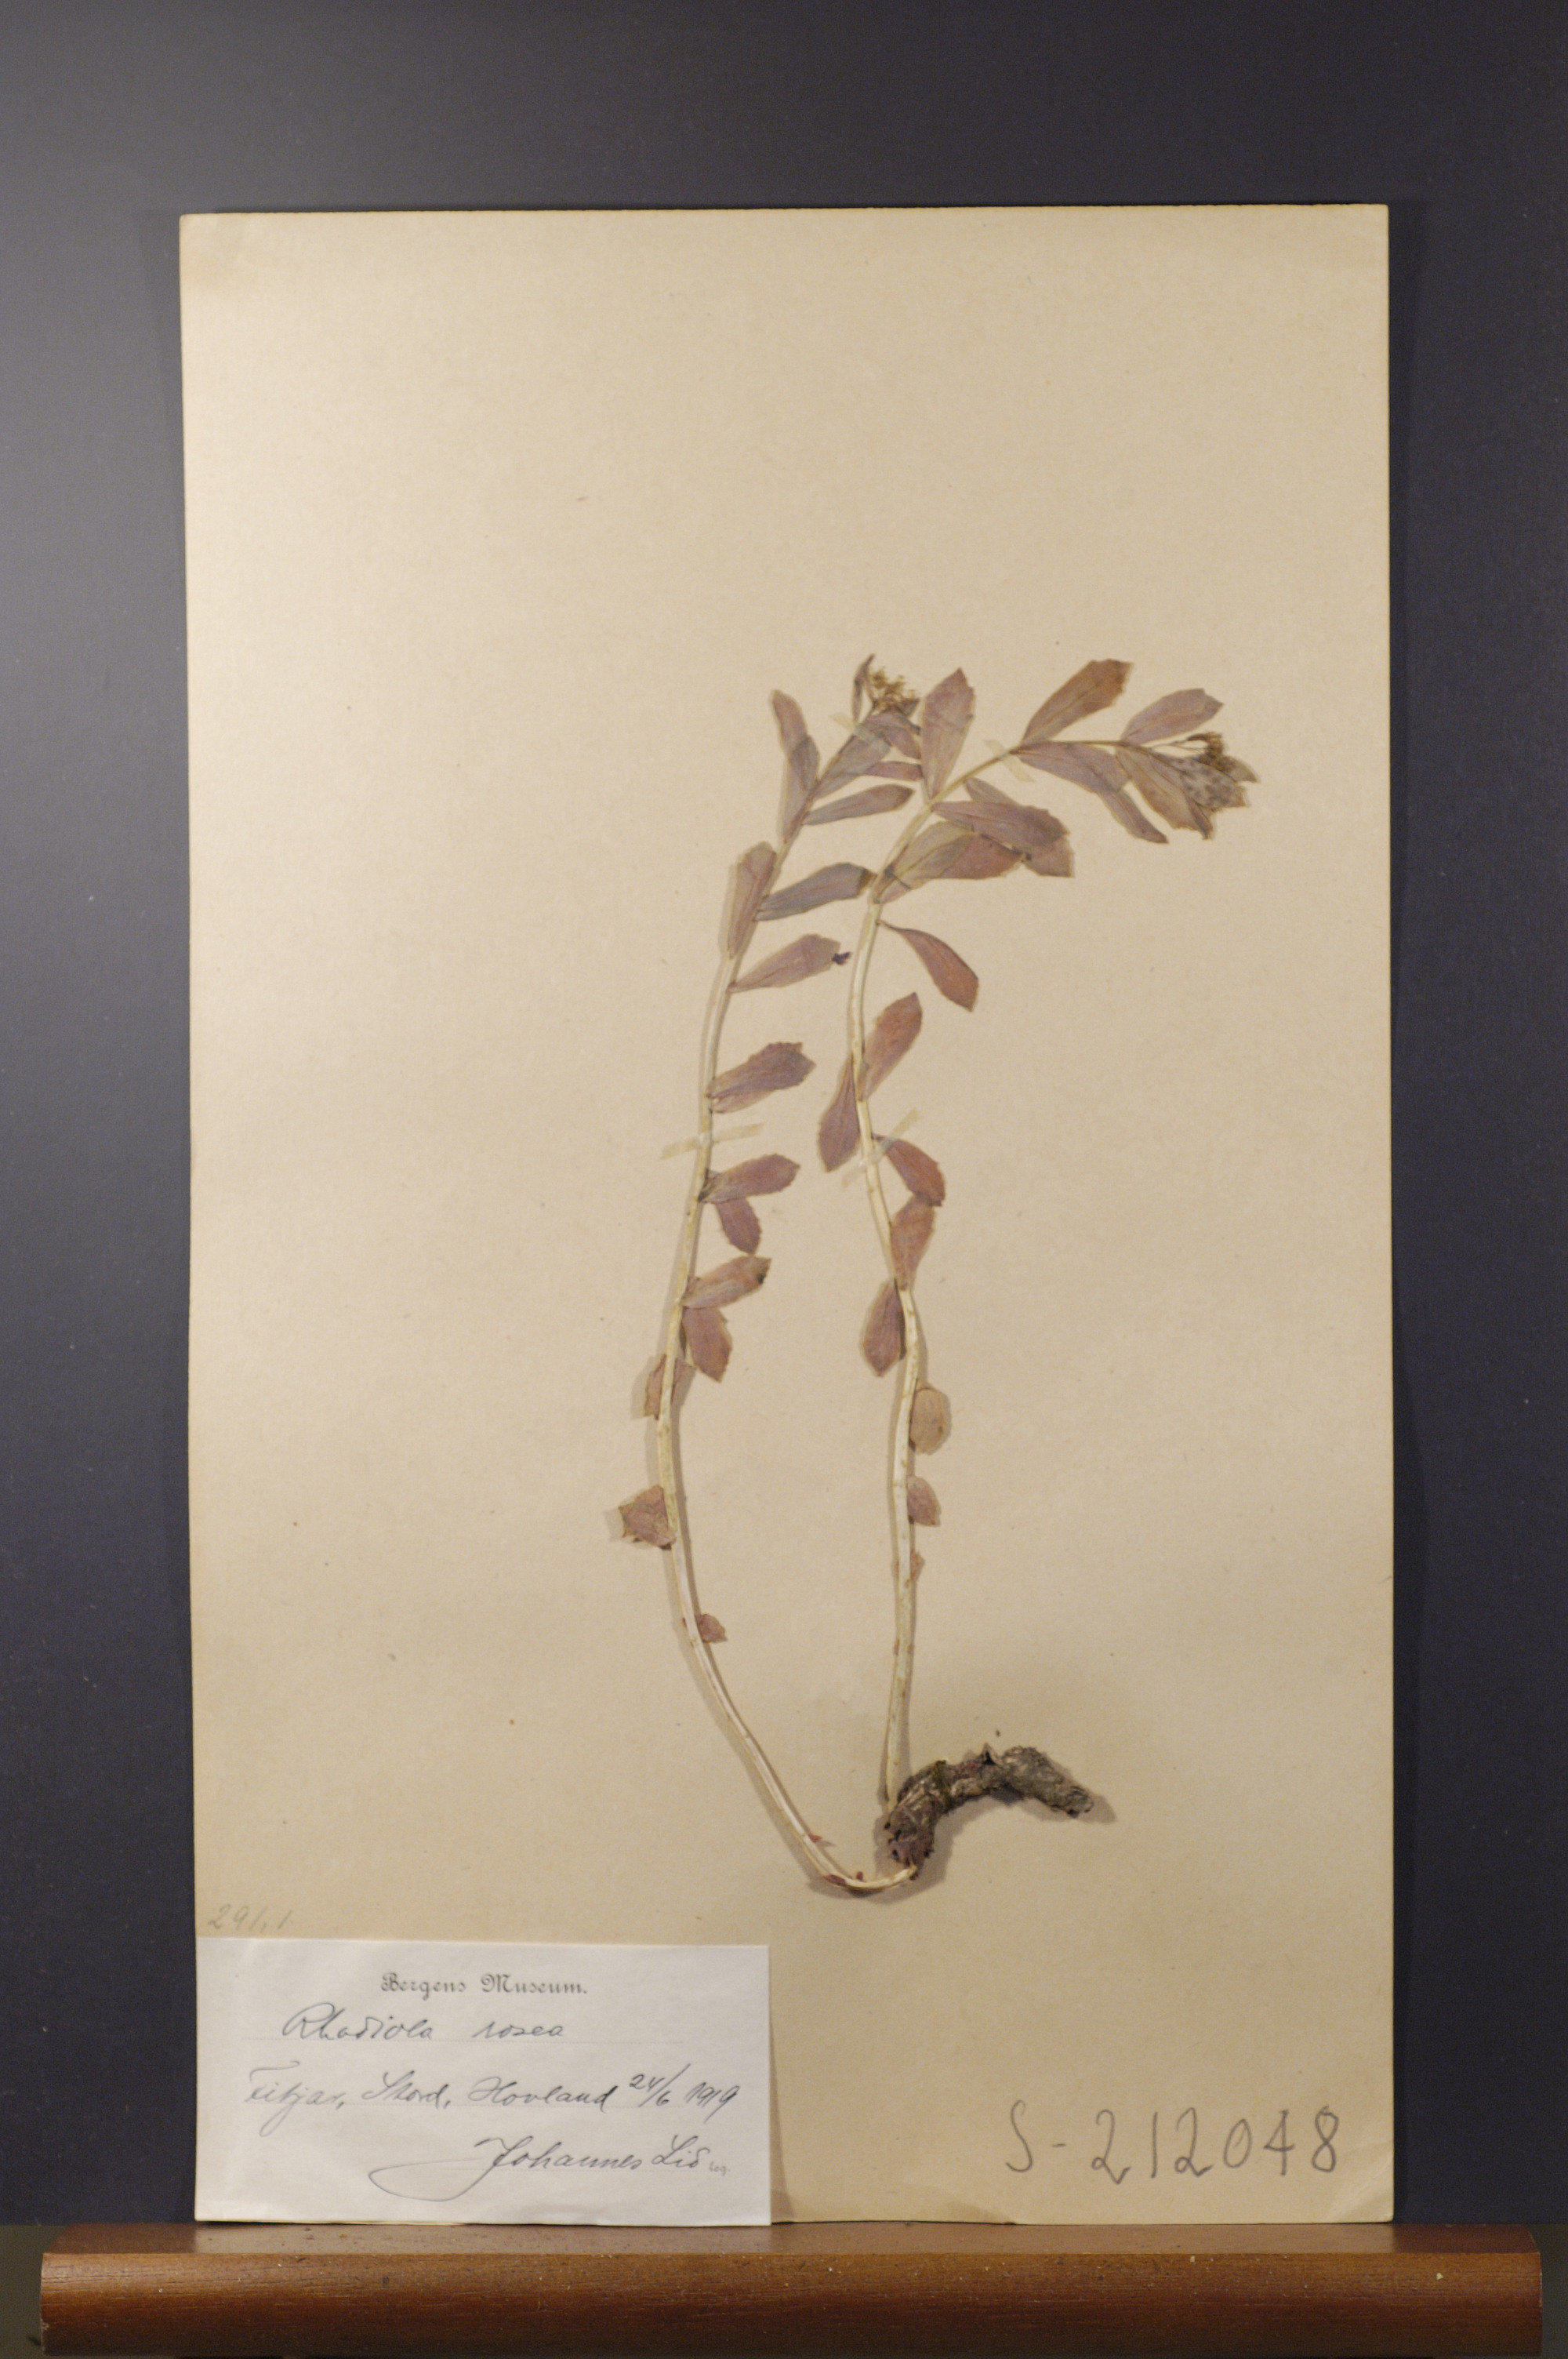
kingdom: Plantae
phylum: Tracheophyta
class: Magnoliopsida
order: Saxifragales
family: Crassulaceae
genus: Rhodiola
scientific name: Rhodiola rosea
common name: Roseroot
